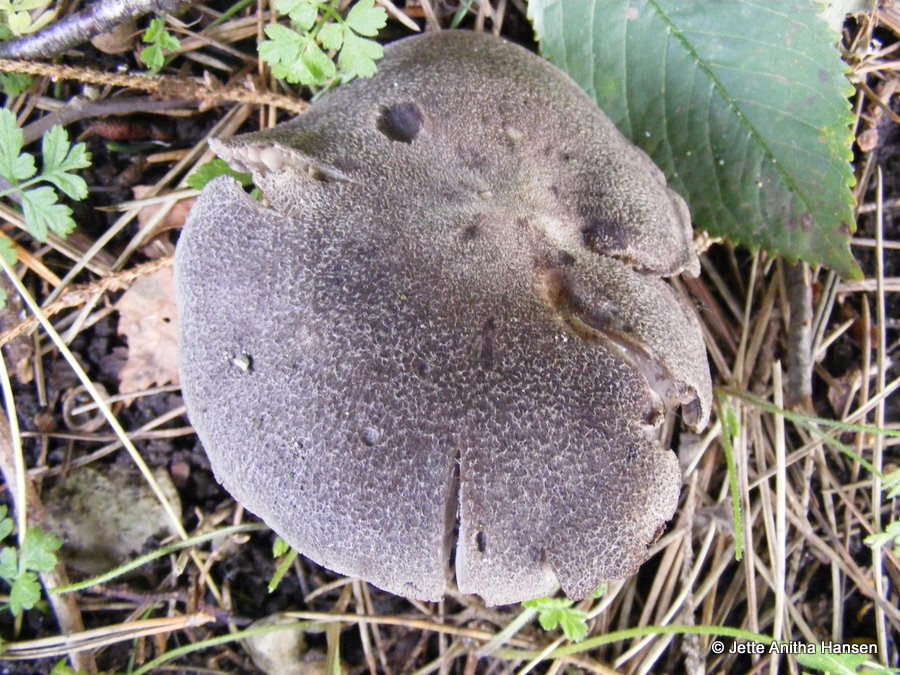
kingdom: Fungi
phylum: Basidiomycota
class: Agaricomycetes
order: Agaricales
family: Tricholomataceae
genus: Tricholoma
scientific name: Tricholoma terreum
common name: jordfarvet ridderhat
